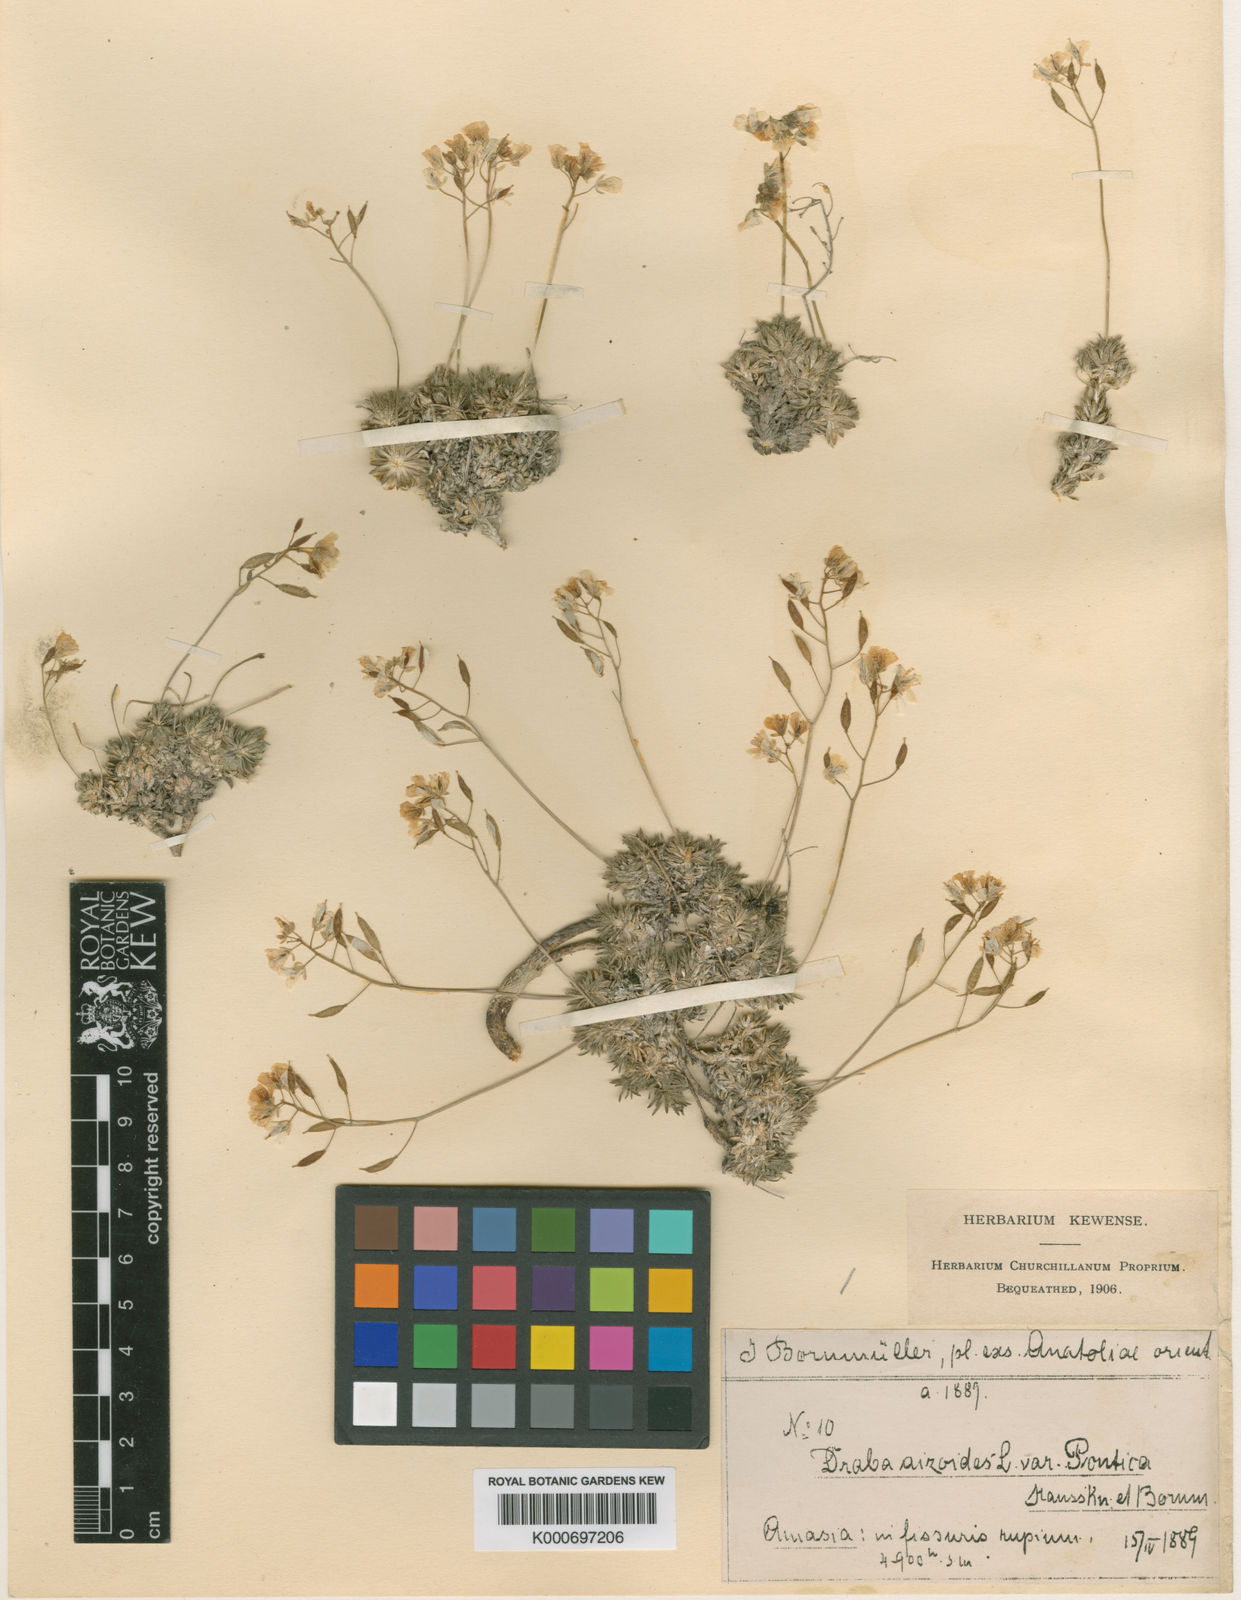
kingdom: Plantae
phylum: Tracheophyta
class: Magnoliopsida
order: Brassicales
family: Brassicaceae
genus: Draba
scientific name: Draba rigida
